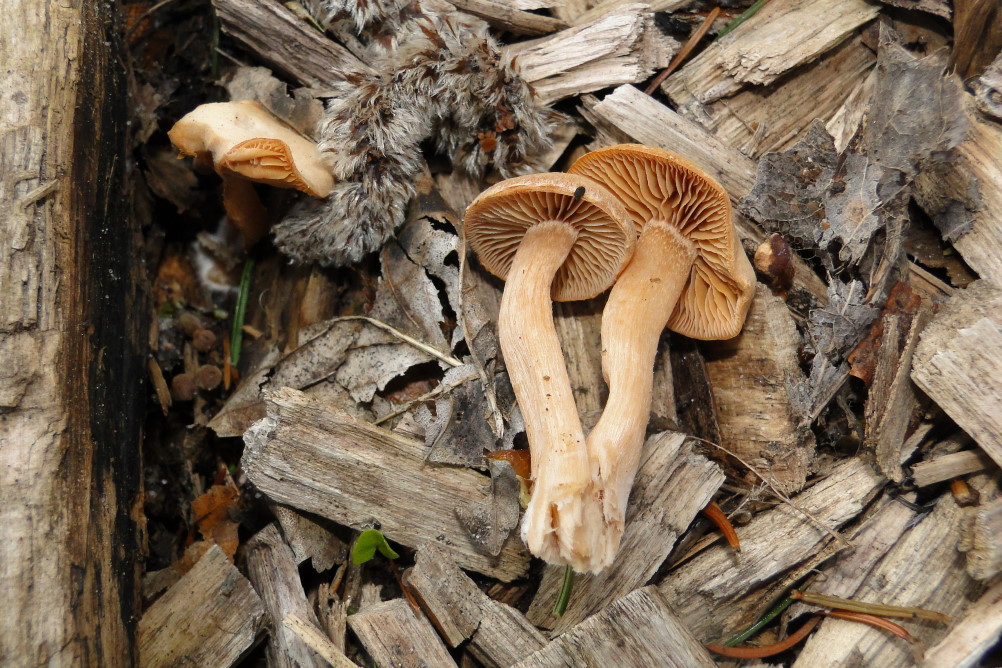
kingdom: Fungi
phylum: Basidiomycota
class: Agaricomycetes
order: Agaricales
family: Tubariaceae
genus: Tubaria
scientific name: Tubaria furfuracea
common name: kliddet fnughat
